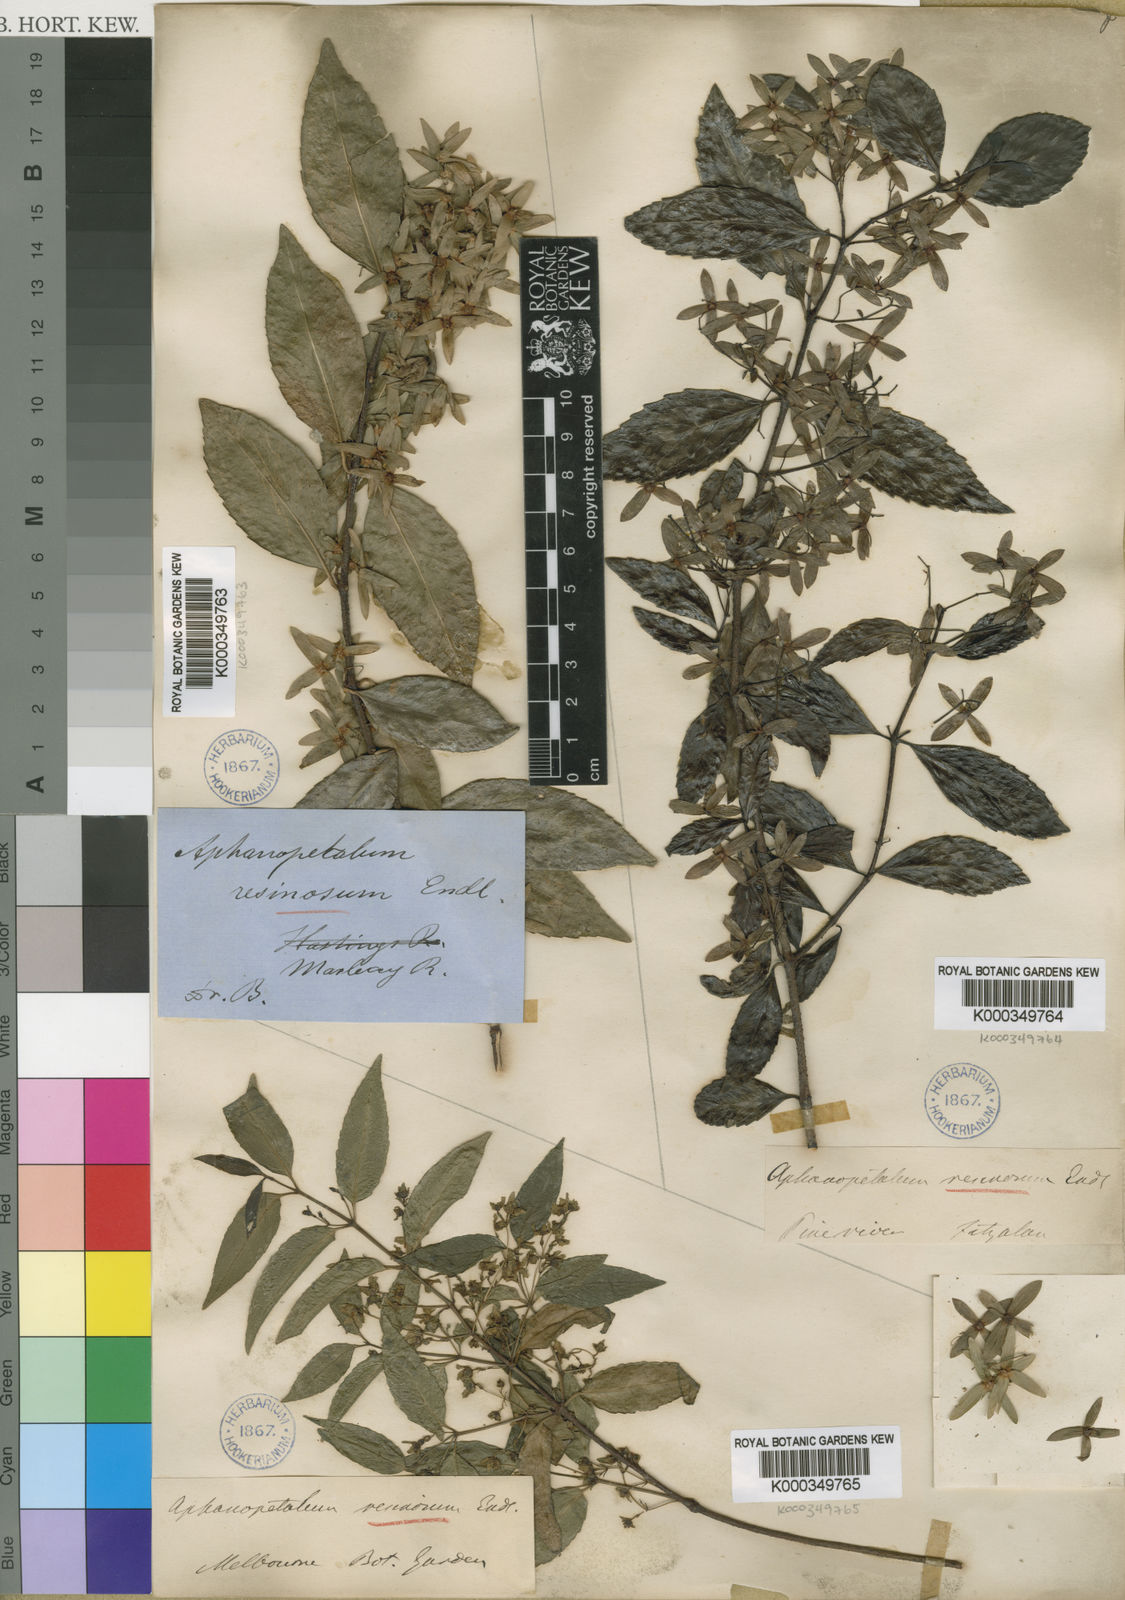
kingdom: Plantae
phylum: Tracheophyta
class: Magnoliopsida
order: Saxifragales
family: Aphanopetalaceae
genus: Aphanopetalum
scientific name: Aphanopetalum resinosum
